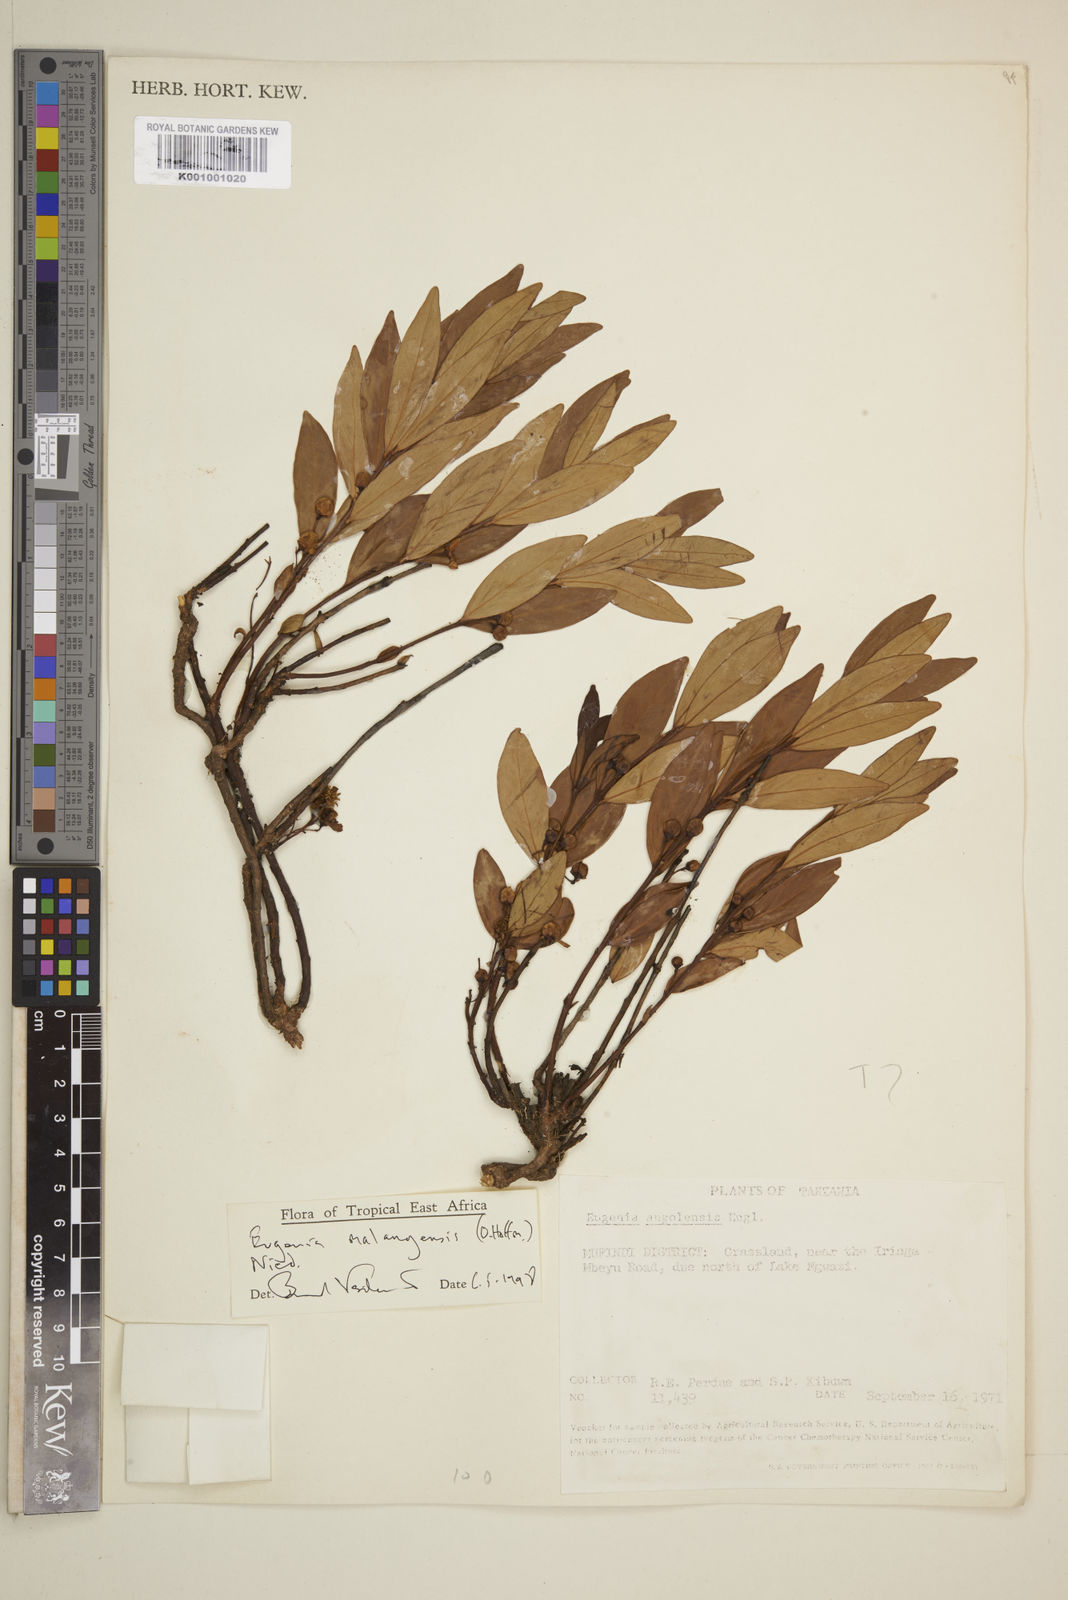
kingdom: Plantae
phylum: Tracheophyta
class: Magnoliopsida
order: Myrtales
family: Myrtaceae
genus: Eugenia
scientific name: Eugenia malangensis
